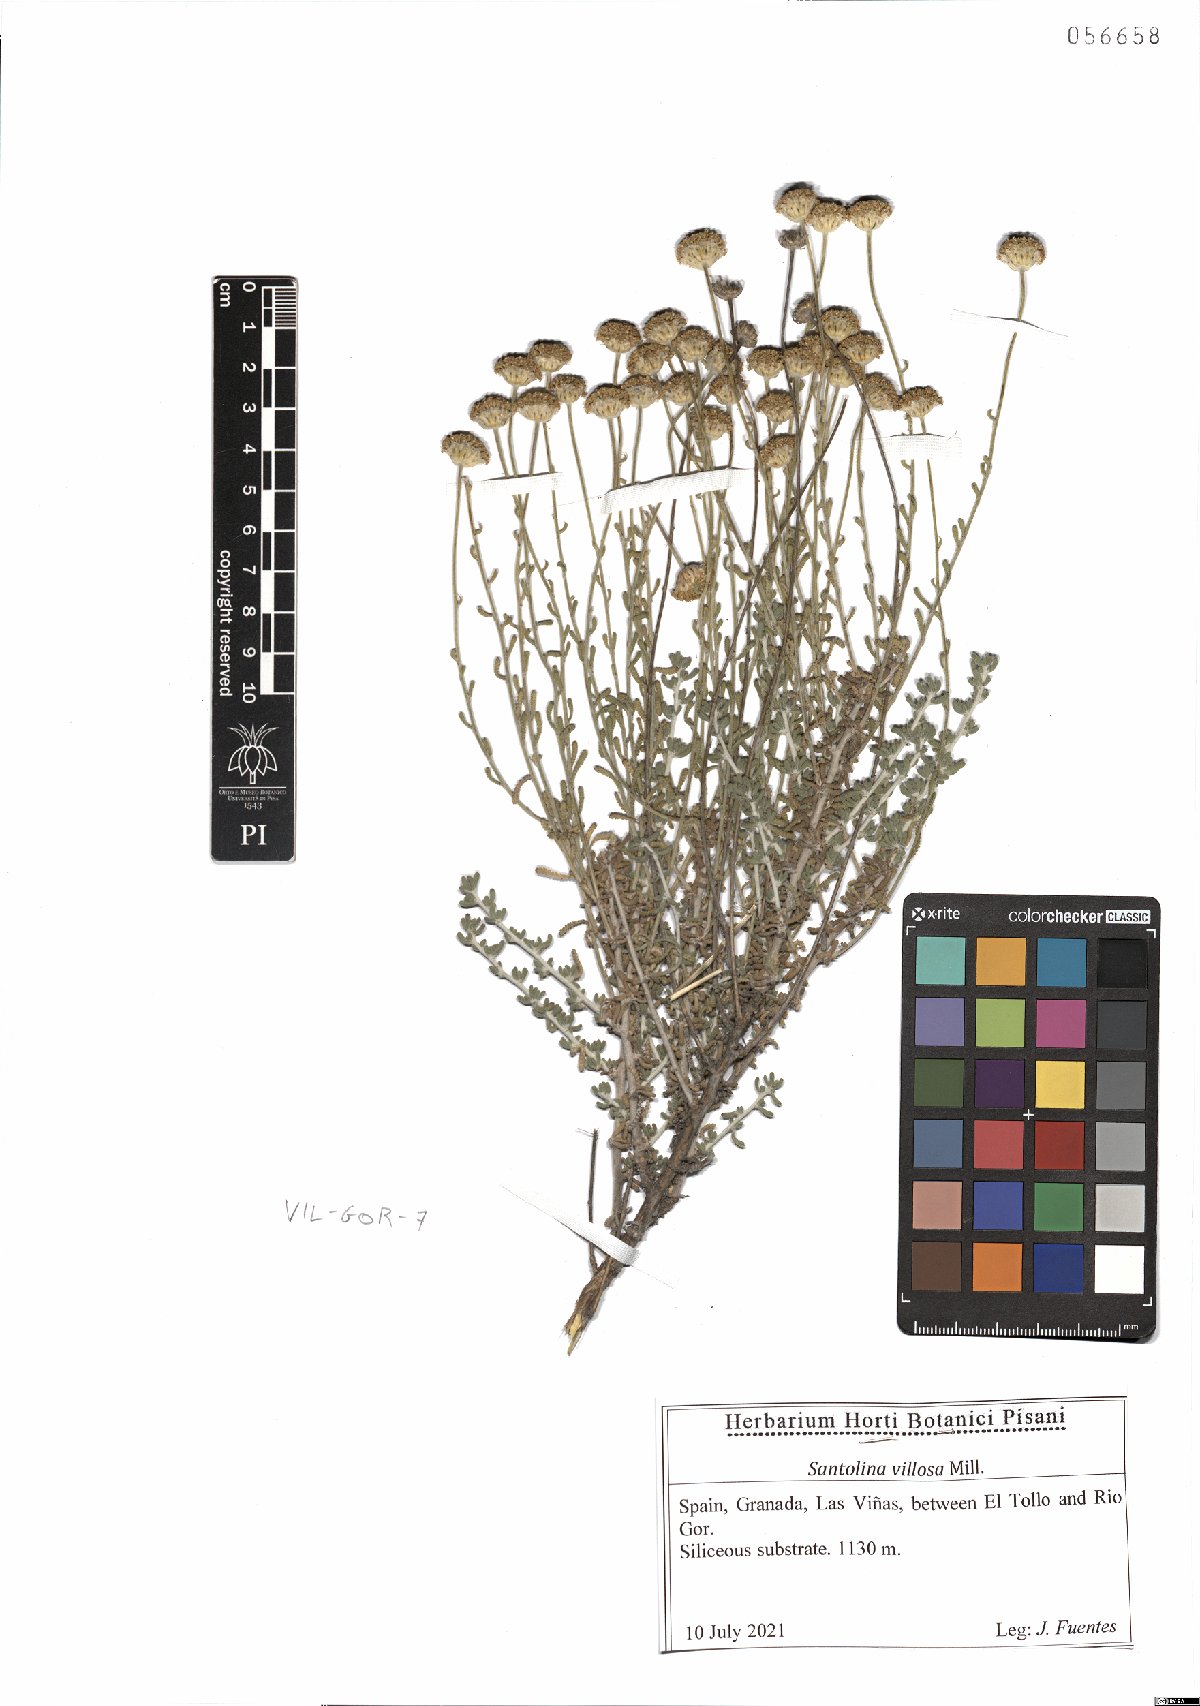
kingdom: Plantae
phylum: Tracheophyta
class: Magnoliopsida
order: Asterales
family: Asteraceae
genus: Santolina
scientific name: Santolina chamaecyparissus
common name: Lavender-cotton
